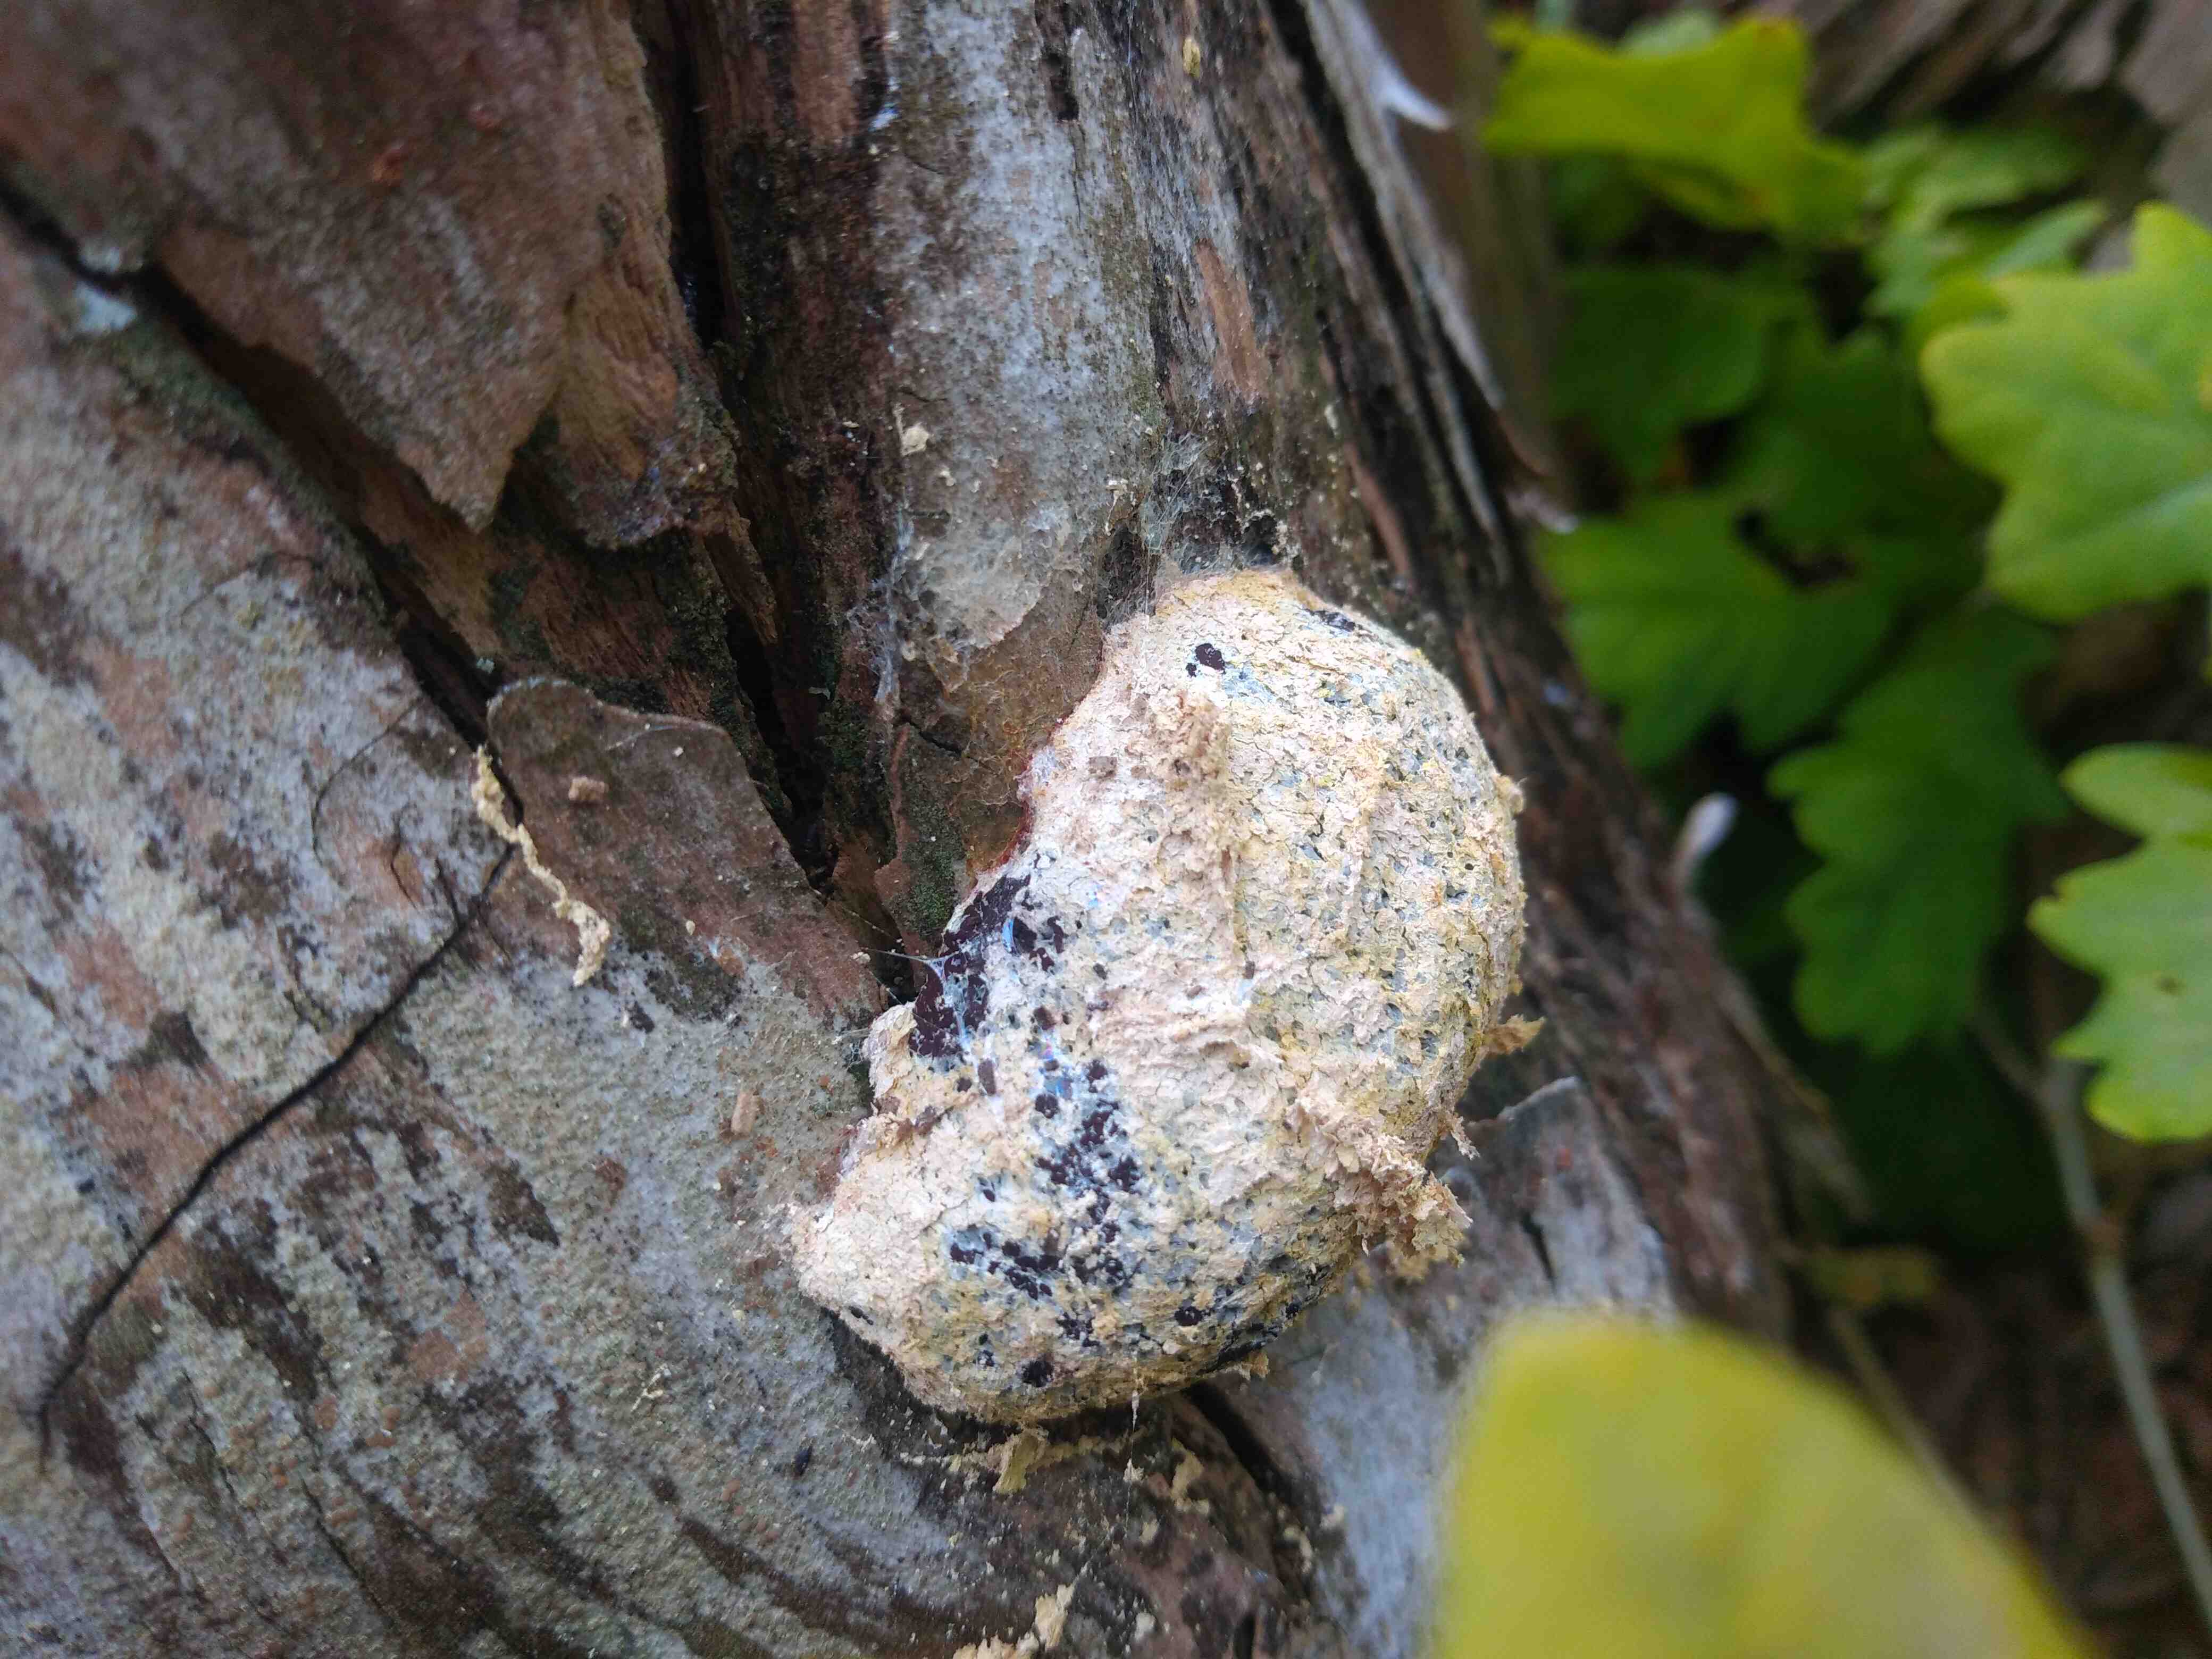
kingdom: Protozoa
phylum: Mycetozoa
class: Myxomycetes
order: Physarales
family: Physaraceae
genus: Fuligo
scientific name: Fuligo
